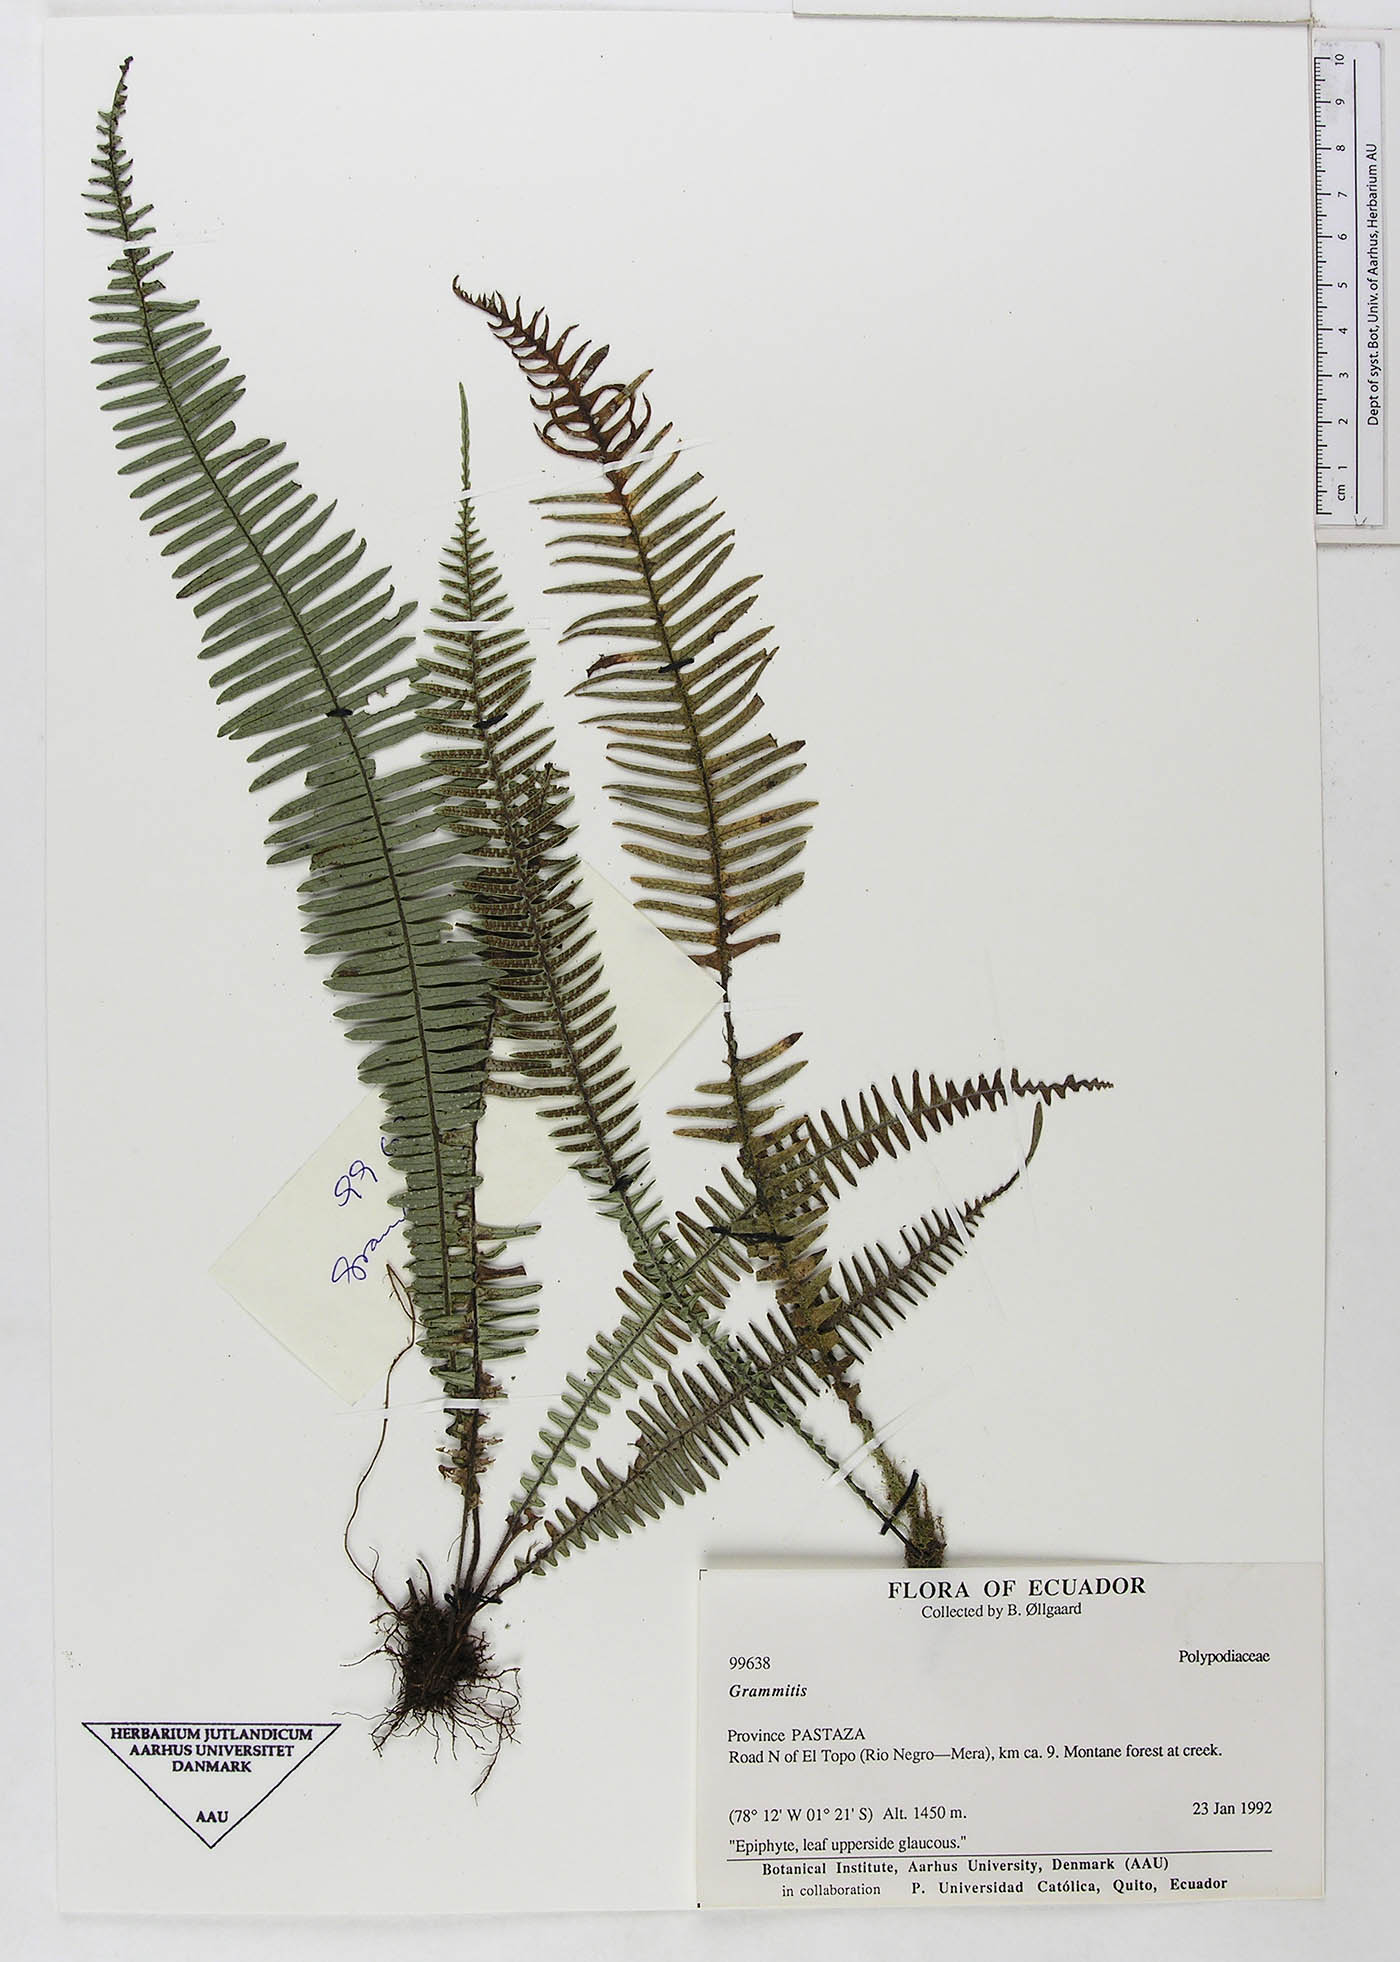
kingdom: Plantae
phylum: Tracheophyta
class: Polypodiopsida
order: Polypodiales
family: Polypodiaceae
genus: Ascogrammitis
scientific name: Ascogrammitis loxensis
